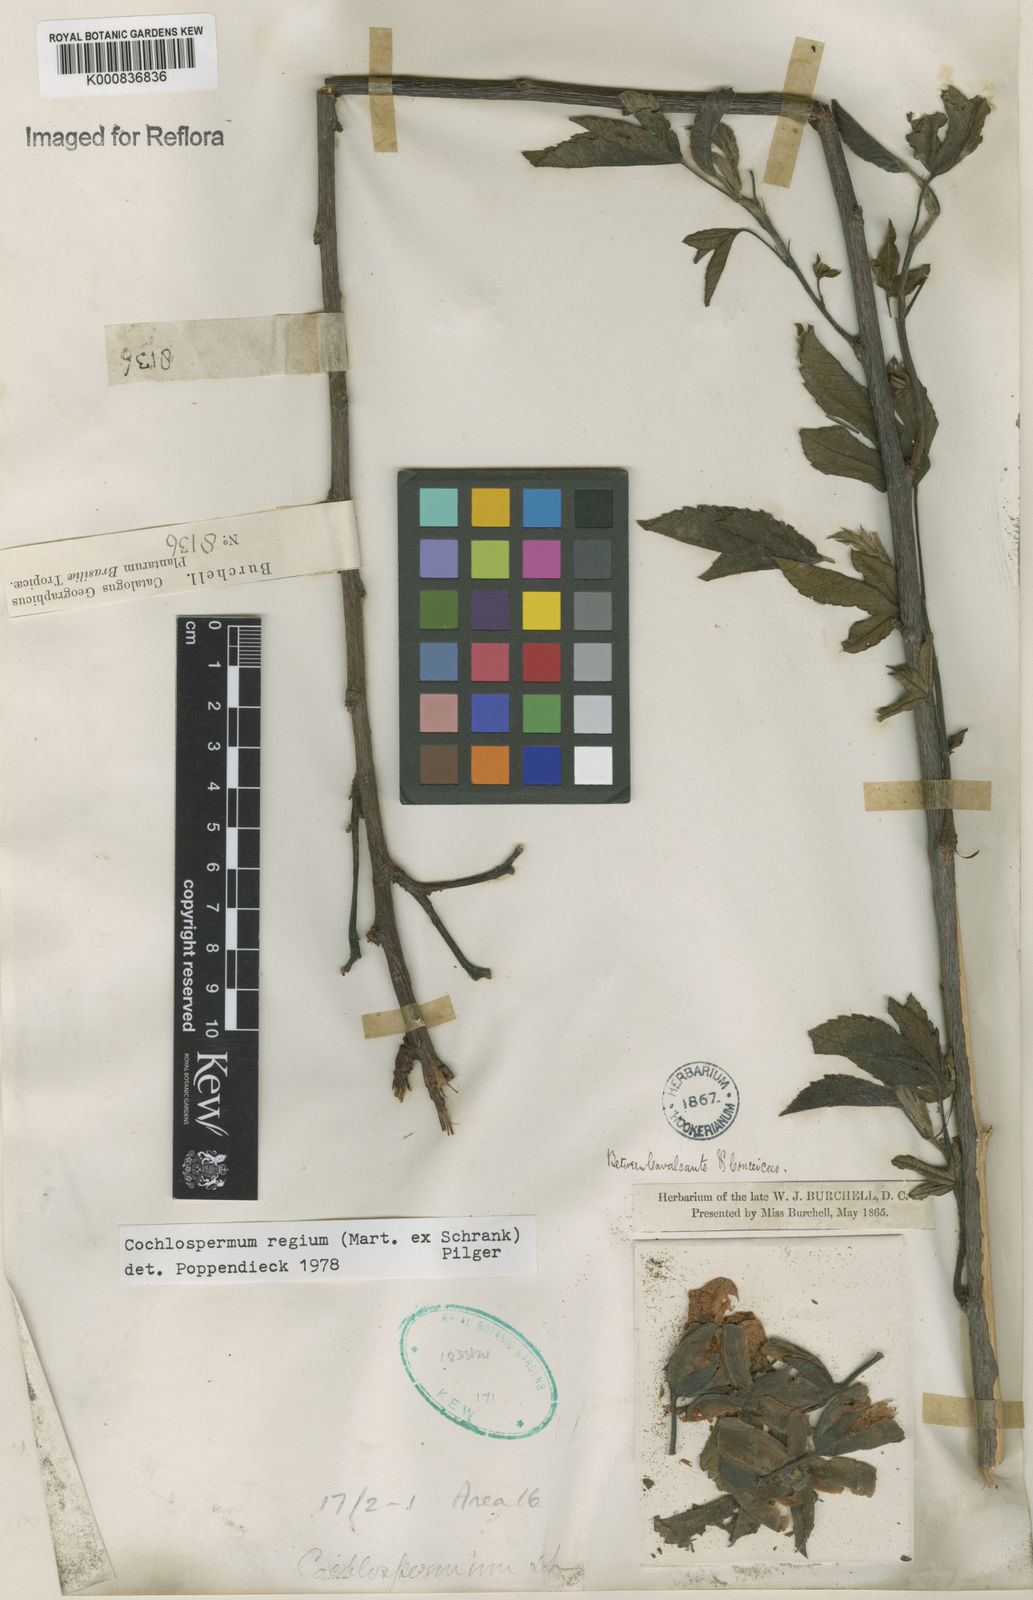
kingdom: Plantae
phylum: Tracheophyta
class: Magnoliopsida
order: Malvales
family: Cochlospermaceae
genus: Cochlospermum
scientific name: Cochlospermum regium
